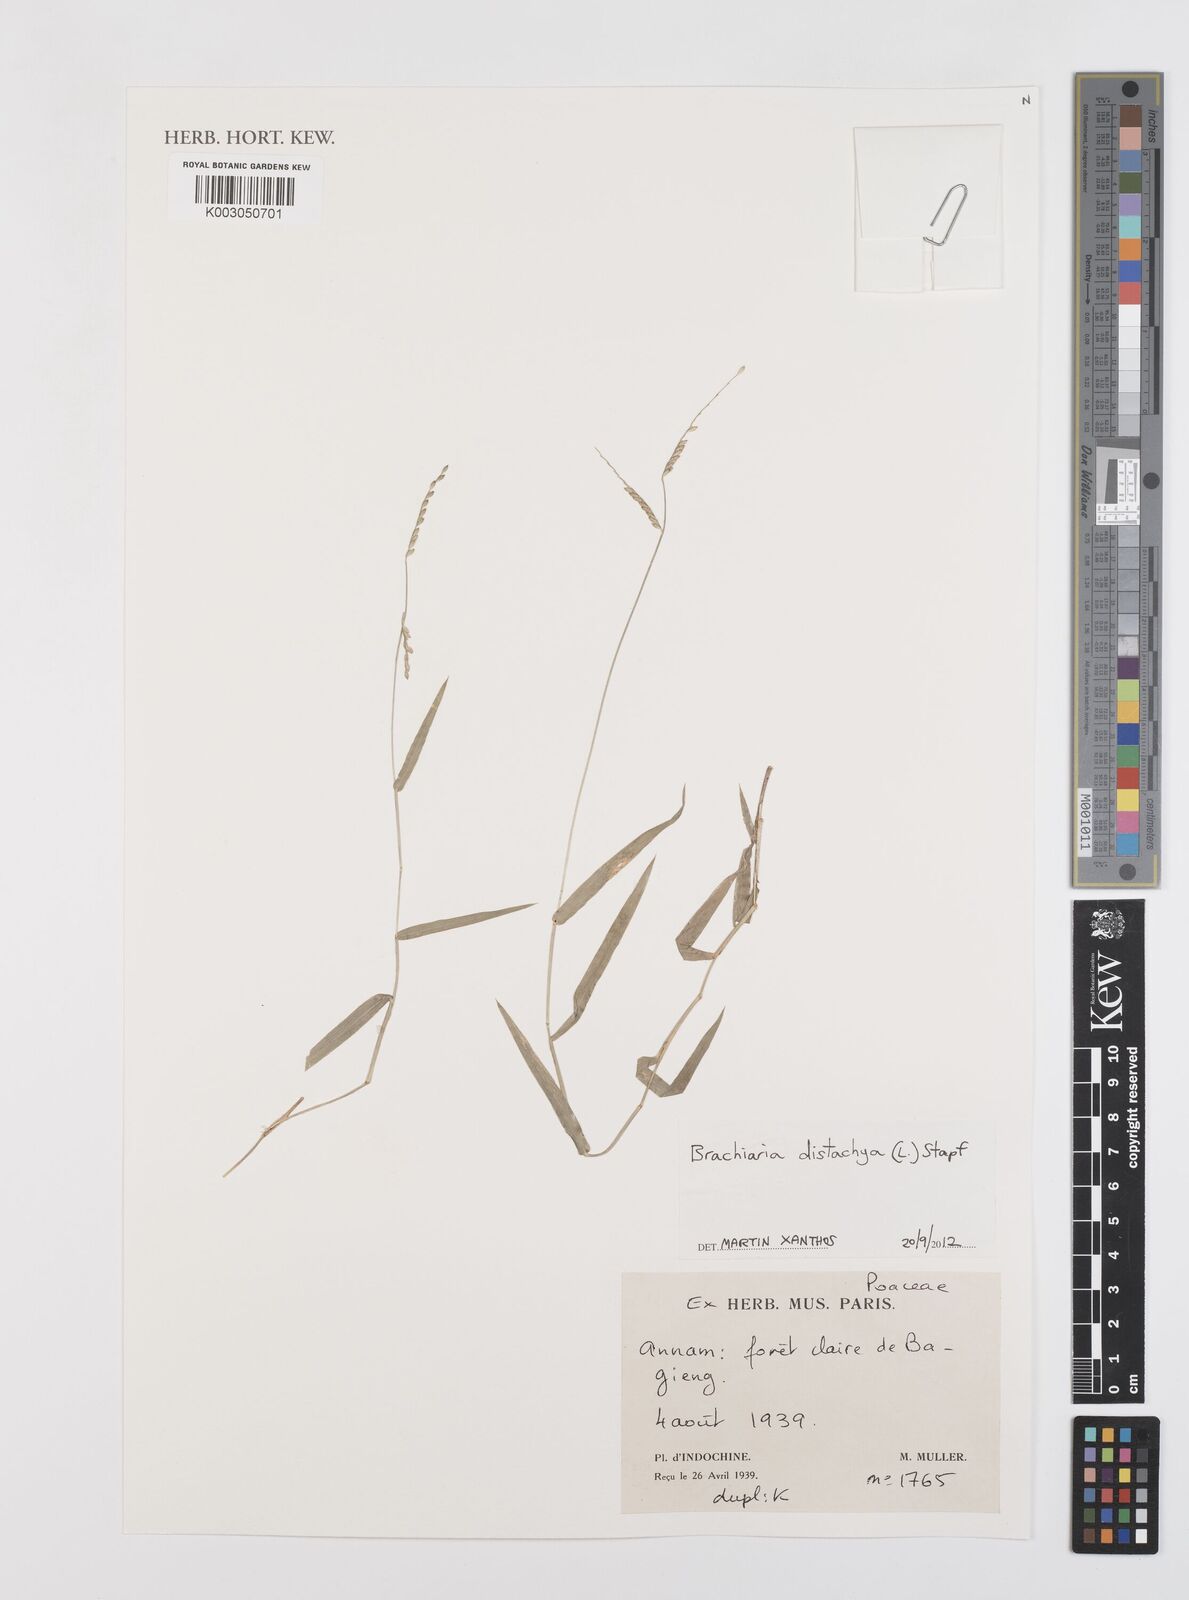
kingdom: Plantae
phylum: Tracheophyta
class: Liliopsida
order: Poales
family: Poaceae
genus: Urochloa
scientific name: Urochloa distachyos
